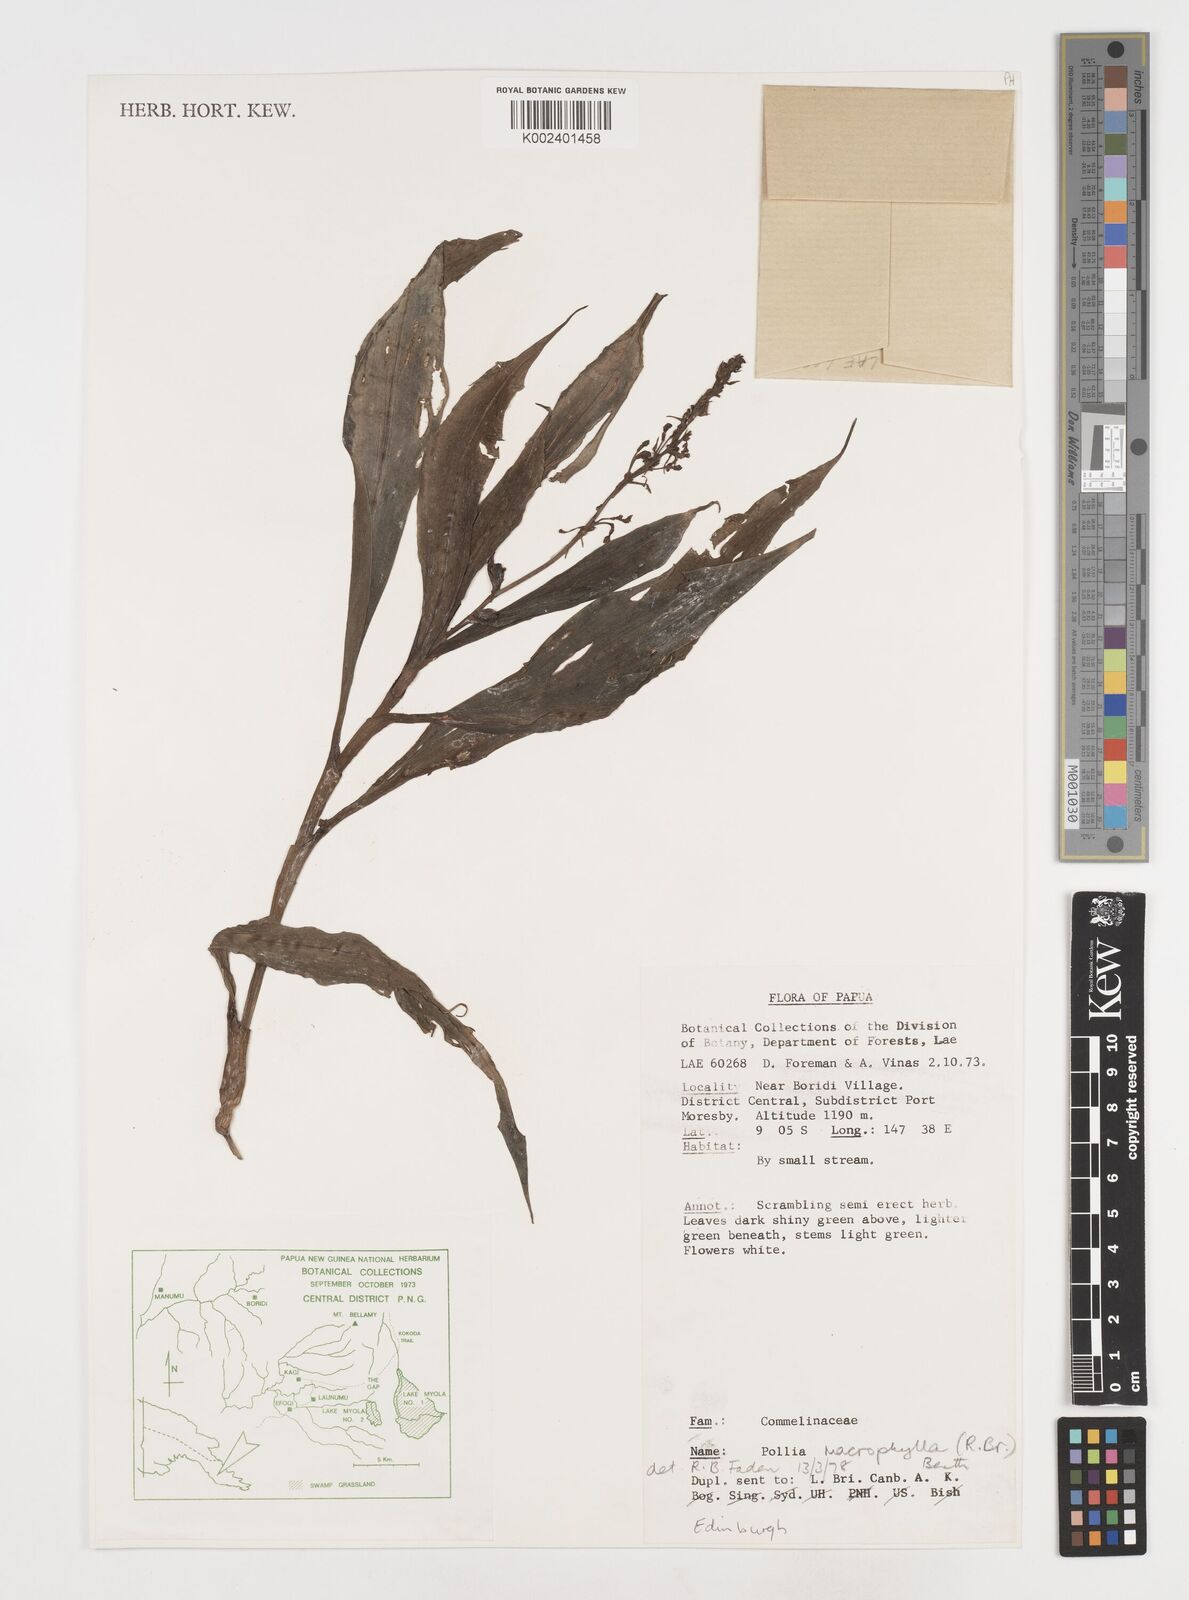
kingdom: Plantae
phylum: Tracheophyta
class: Liliopsida
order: Commelinales
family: Commelinaceae
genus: Pollia
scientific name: Pollia macrophylla
